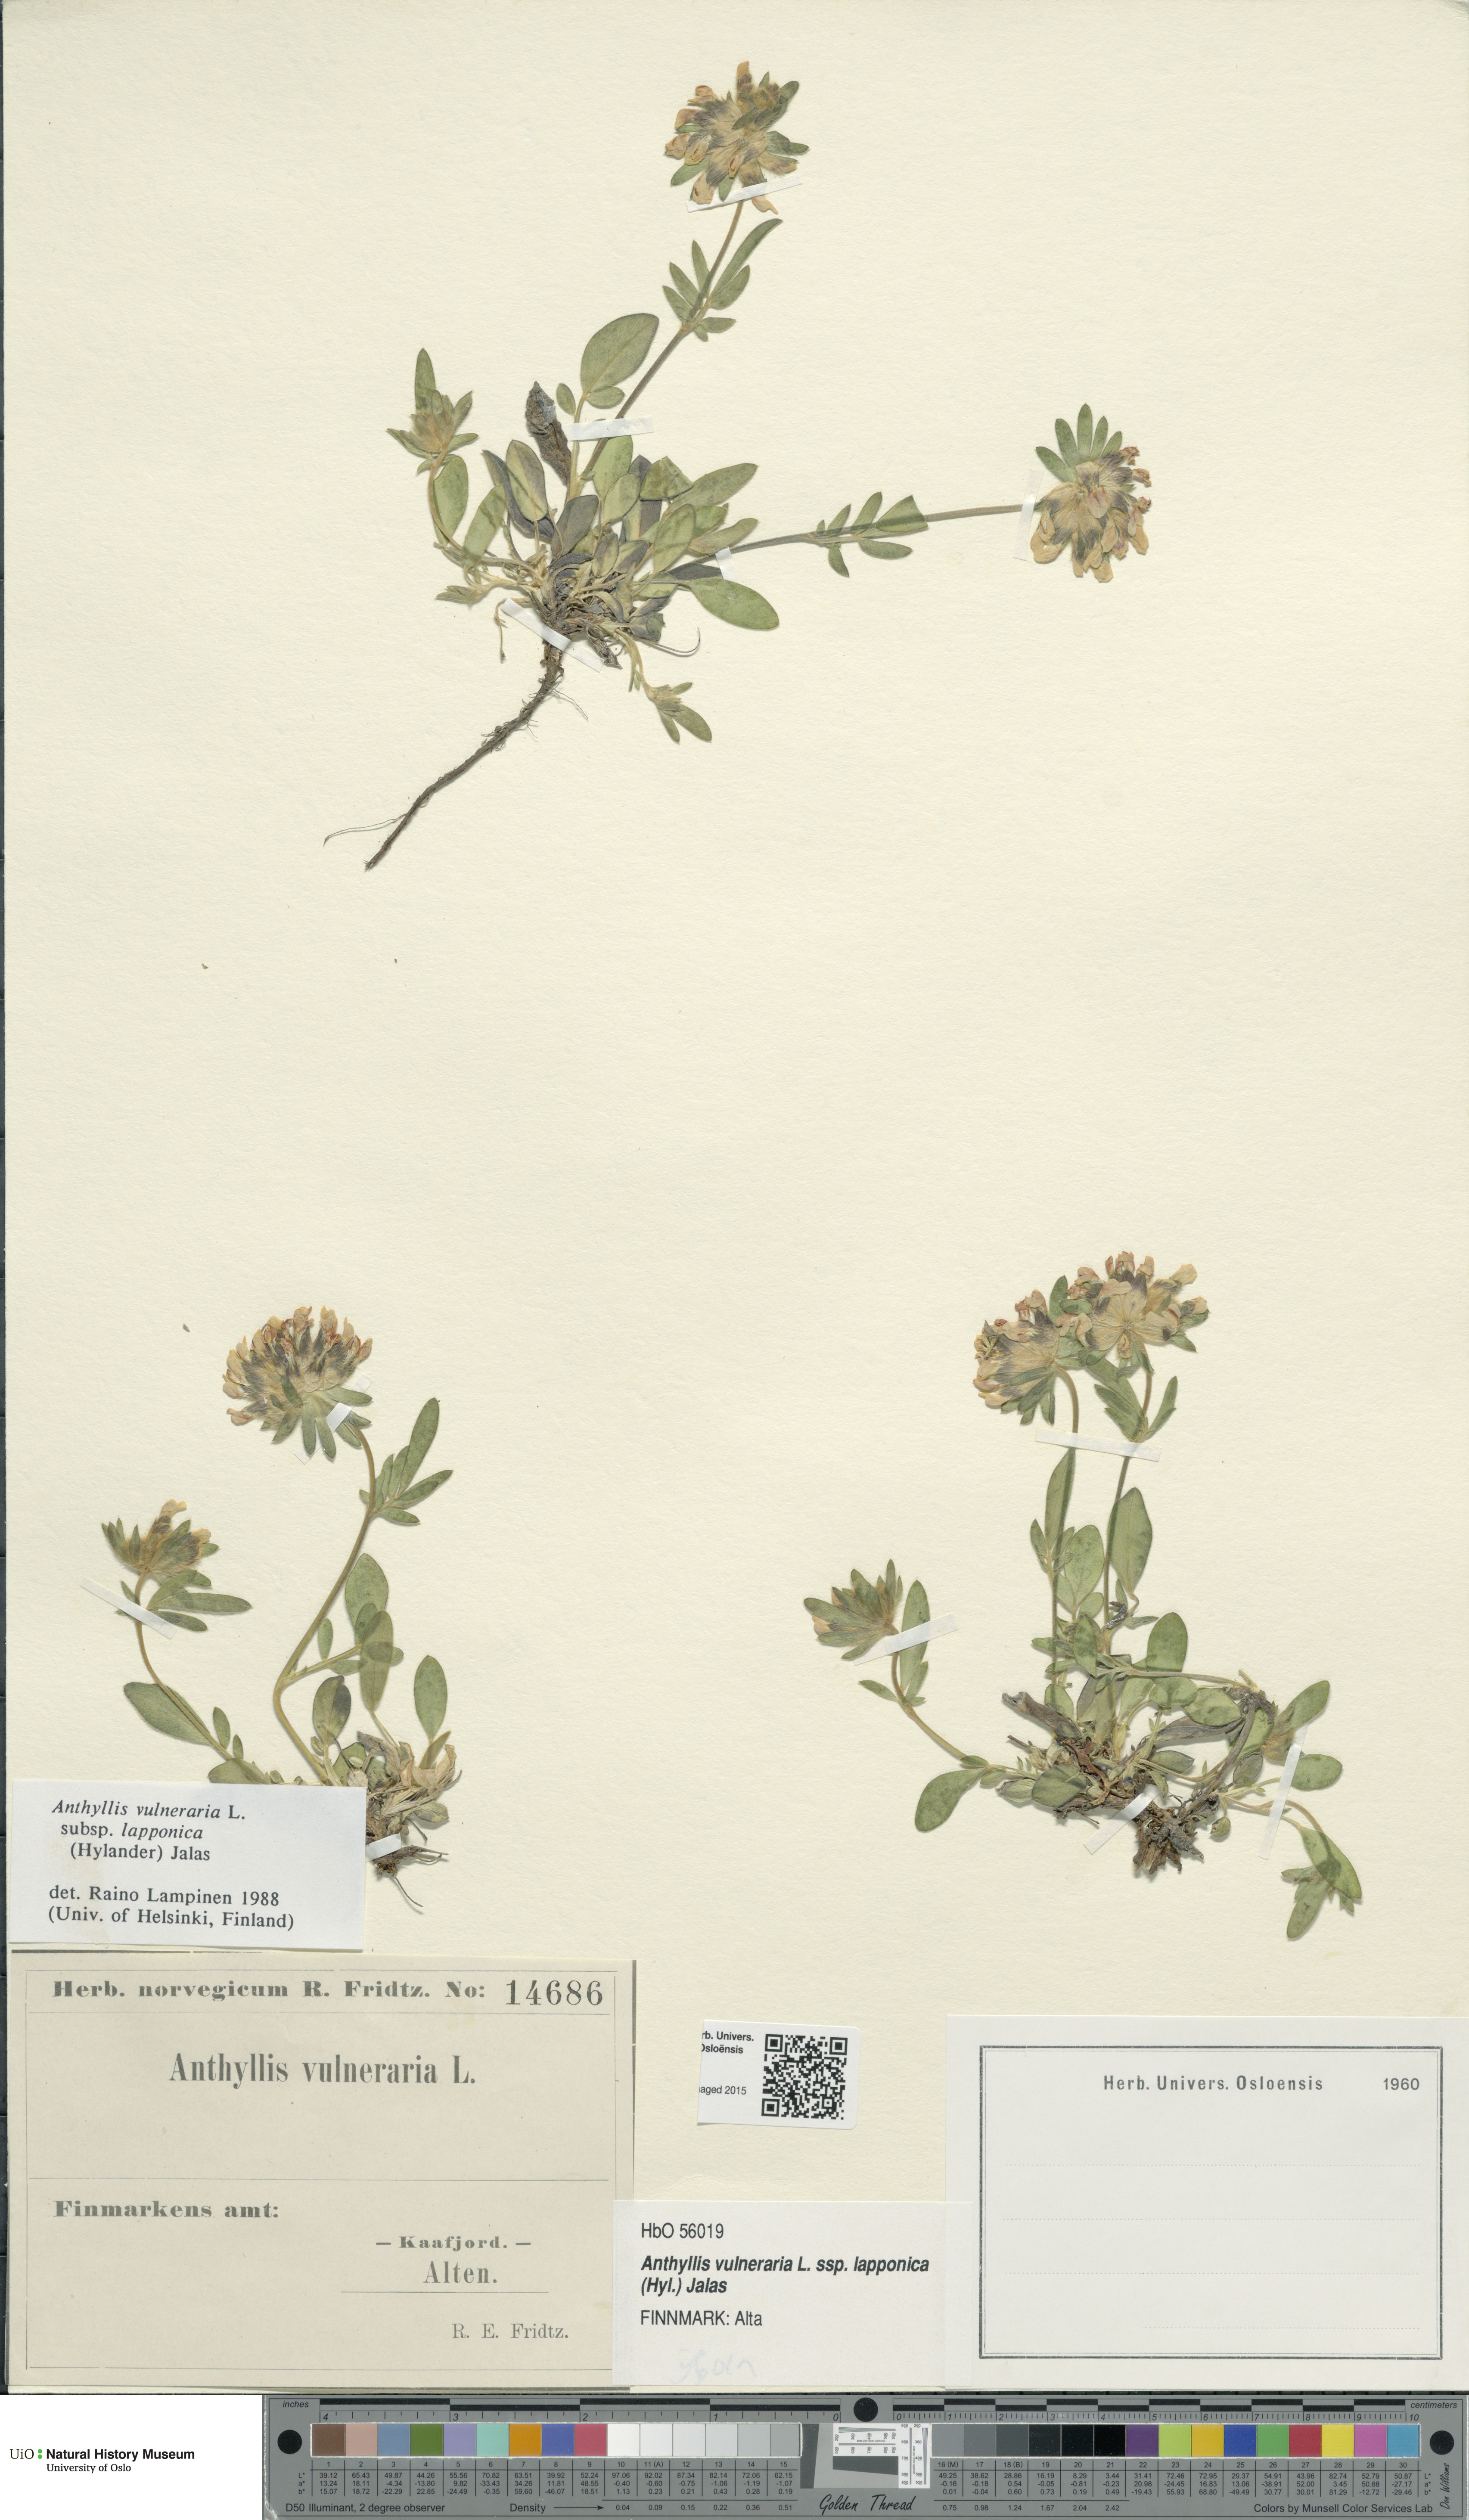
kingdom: Plantae
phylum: Tracheophyta
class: Magnoliopsida
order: Fabales
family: Fabaceae
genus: Anthyllis
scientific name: Anthyllis vulneraria
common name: Kidney vetch
